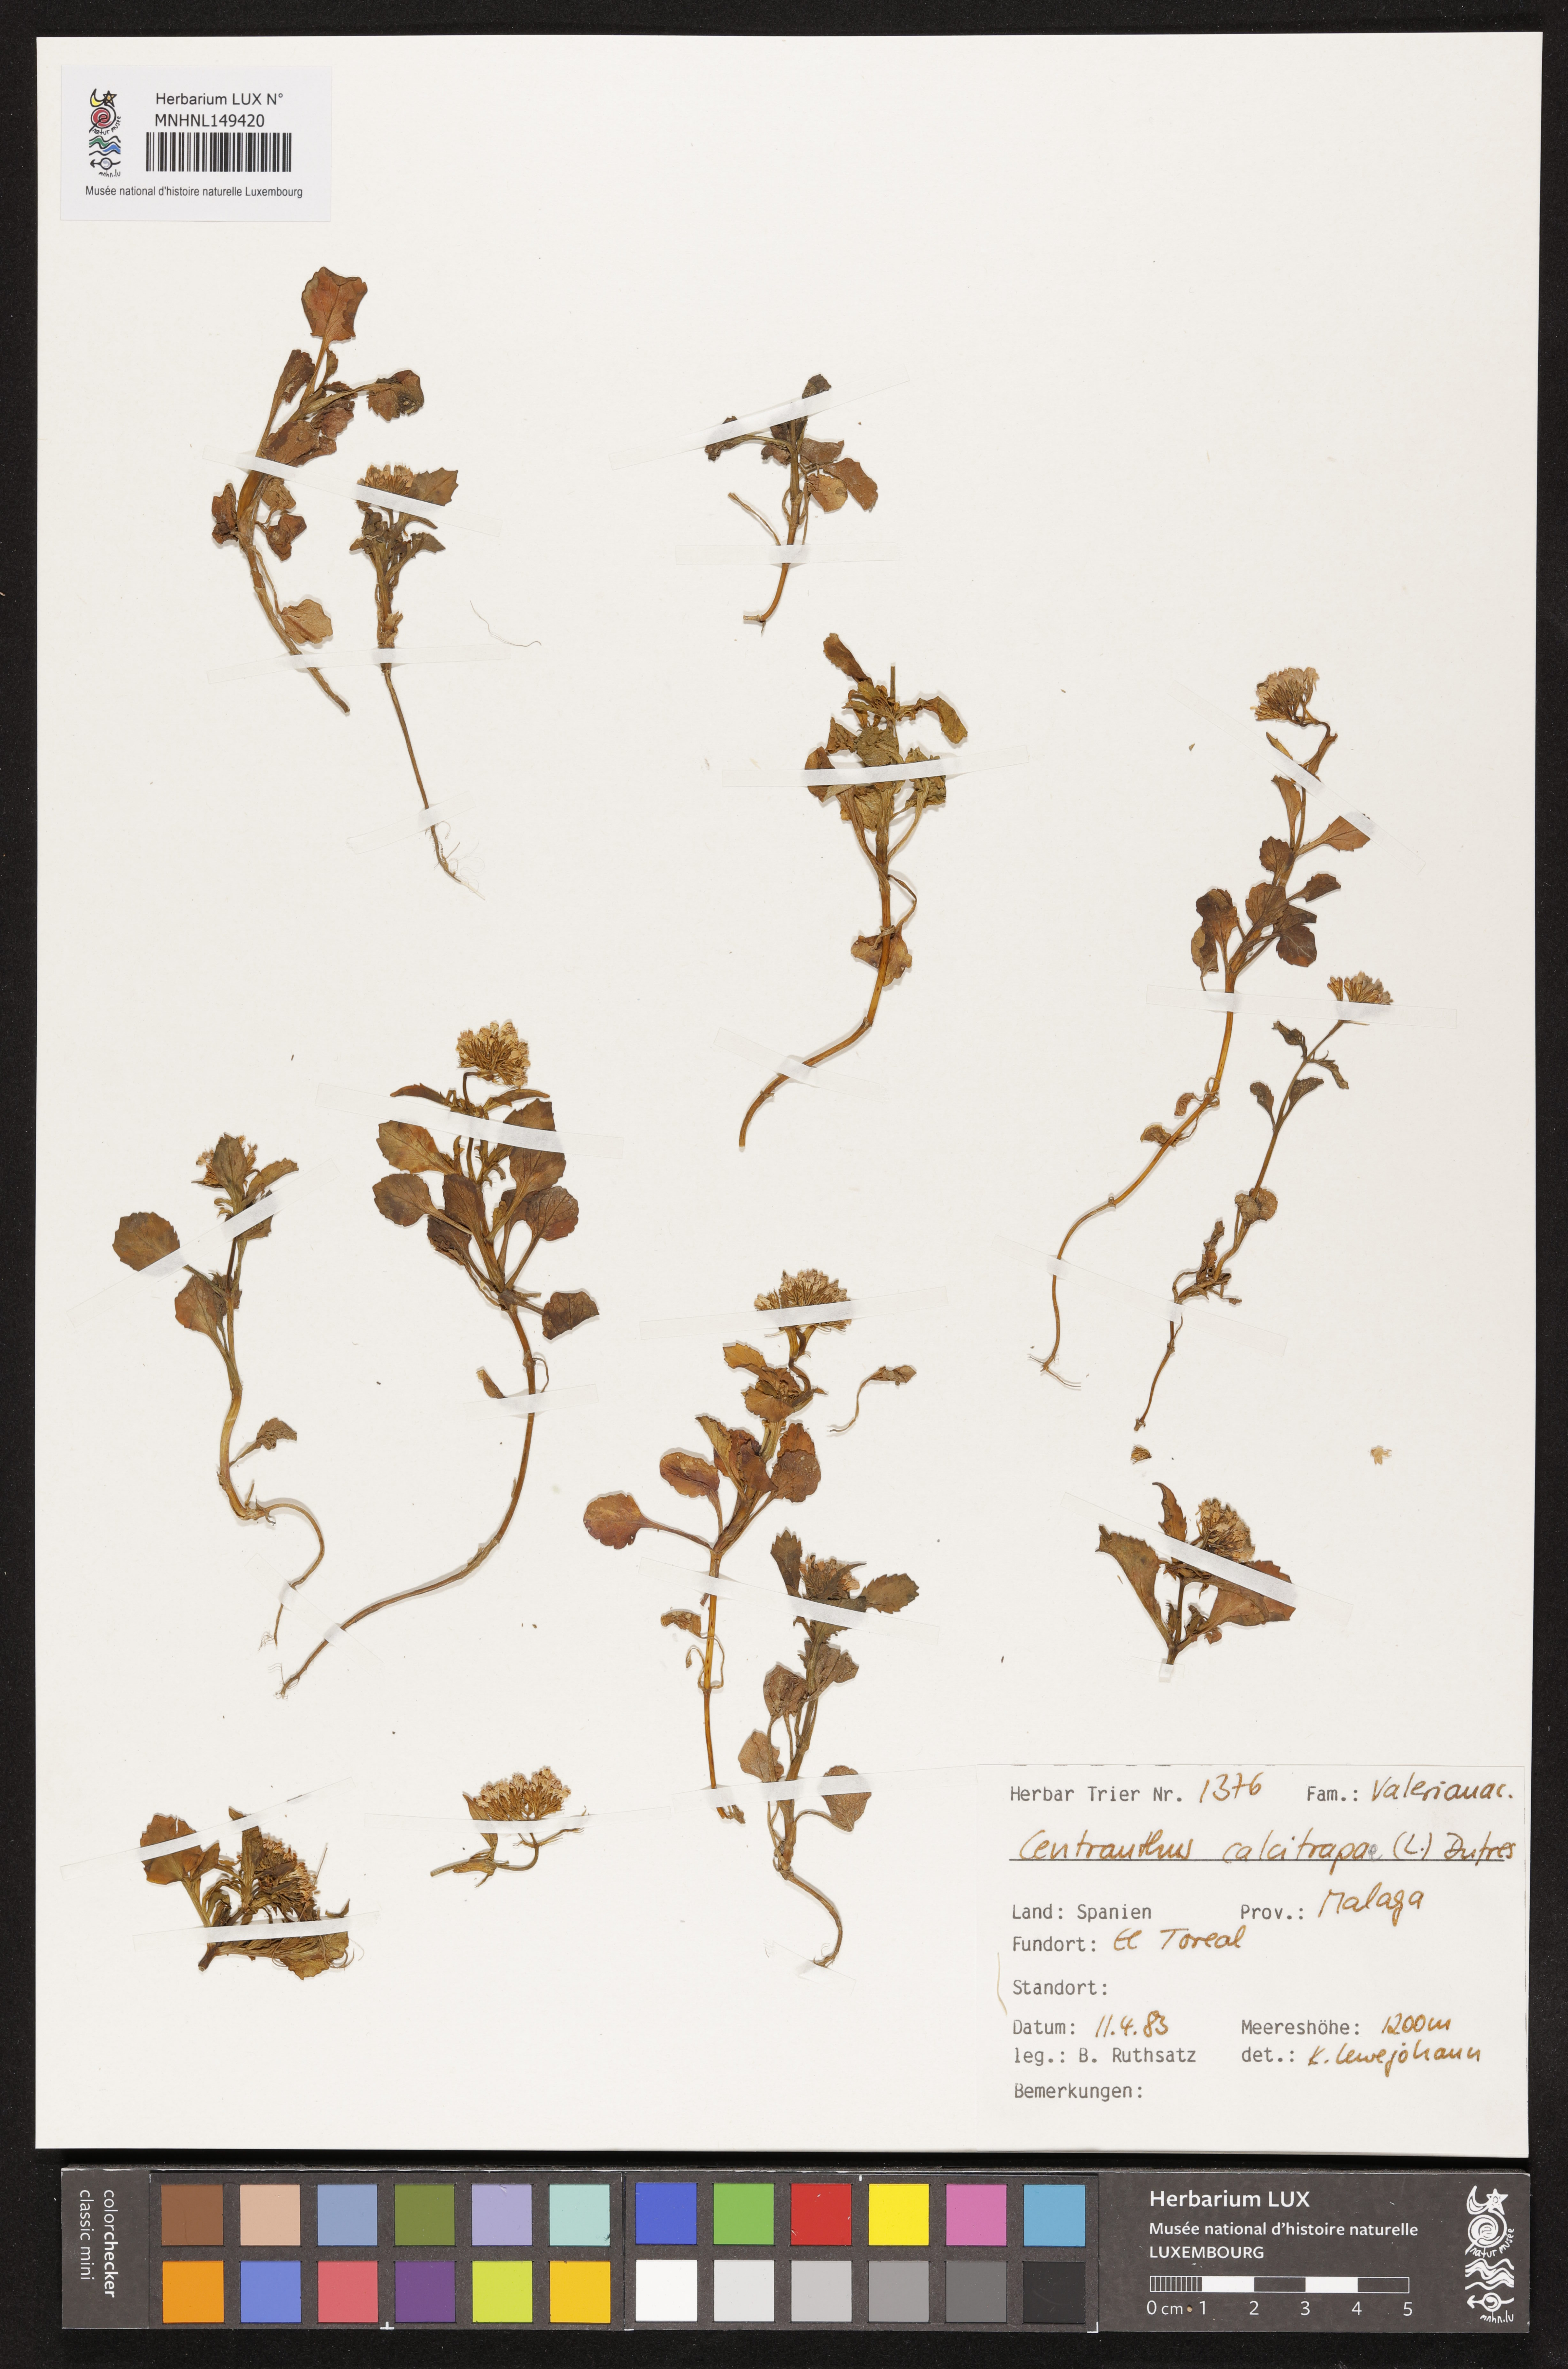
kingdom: Plantae
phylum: Tracheophyta
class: Magnoliopsida
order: Dipsacales
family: Caprifoliaceae
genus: Centranthus
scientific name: Centranthus calcitrapae
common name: Annual valerian
